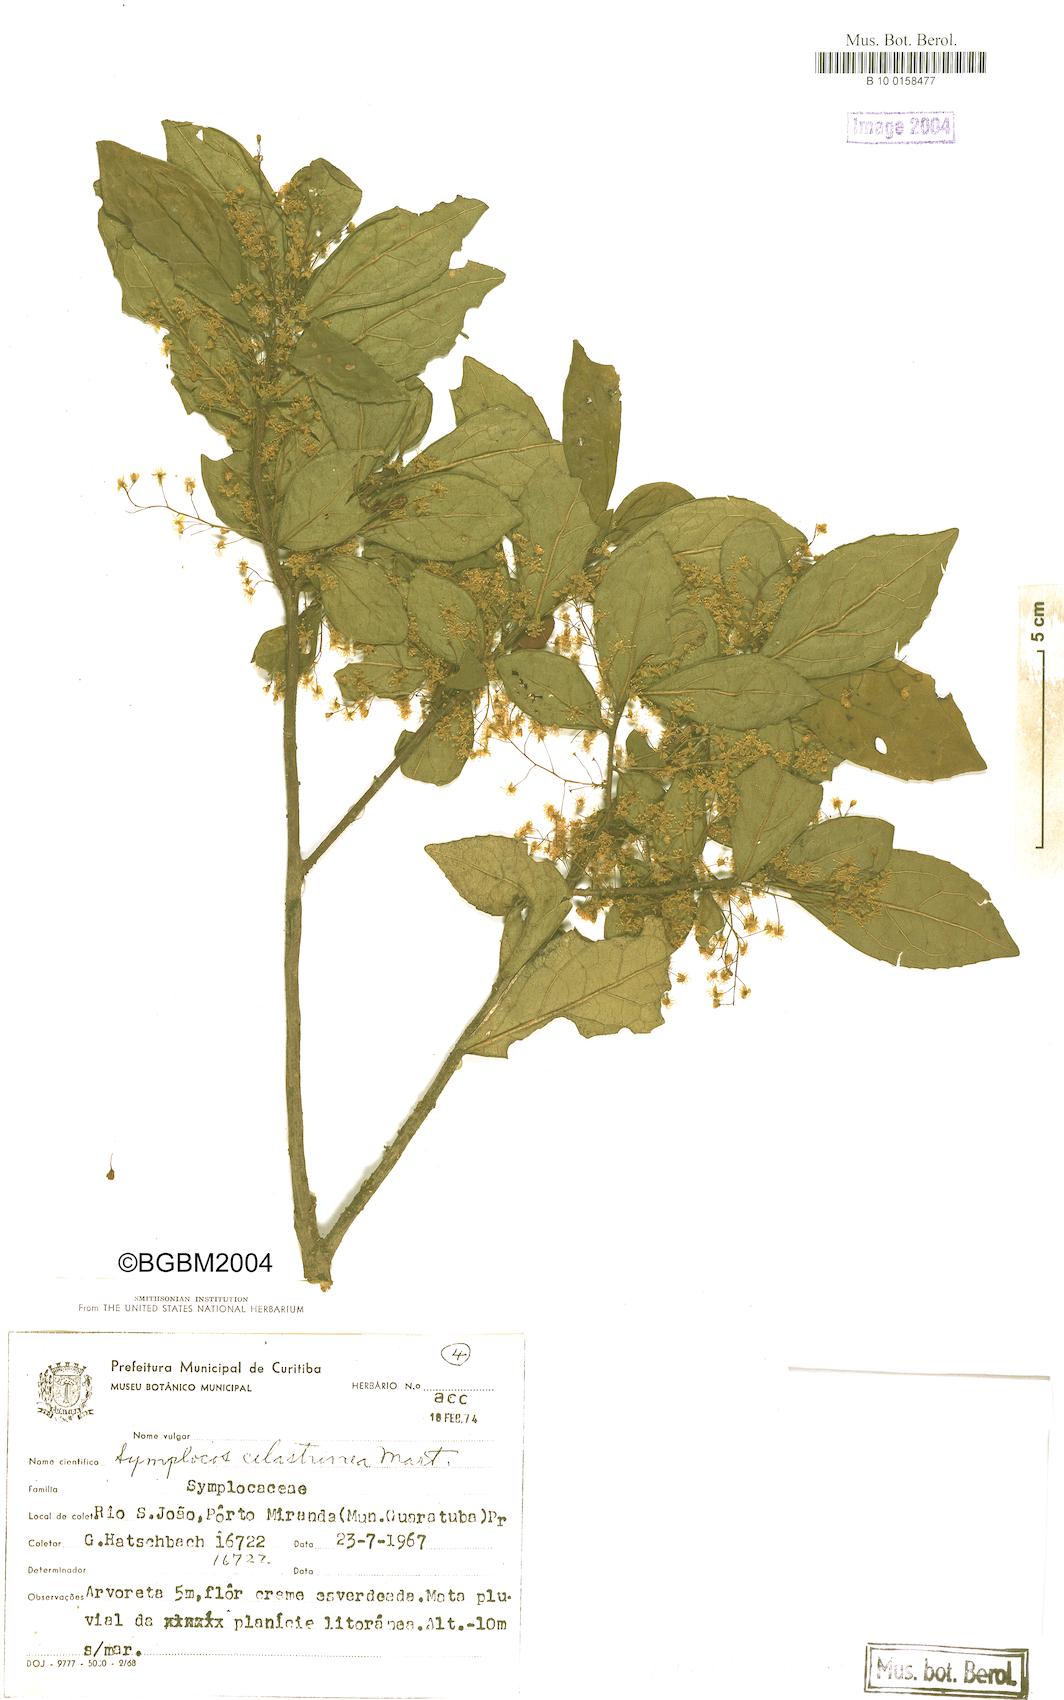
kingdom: Plantae
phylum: Tracheophyta
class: Magnoliopsida
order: Ericales
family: Symplocaceae
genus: Symplocos
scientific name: Symplocos pustulosa
